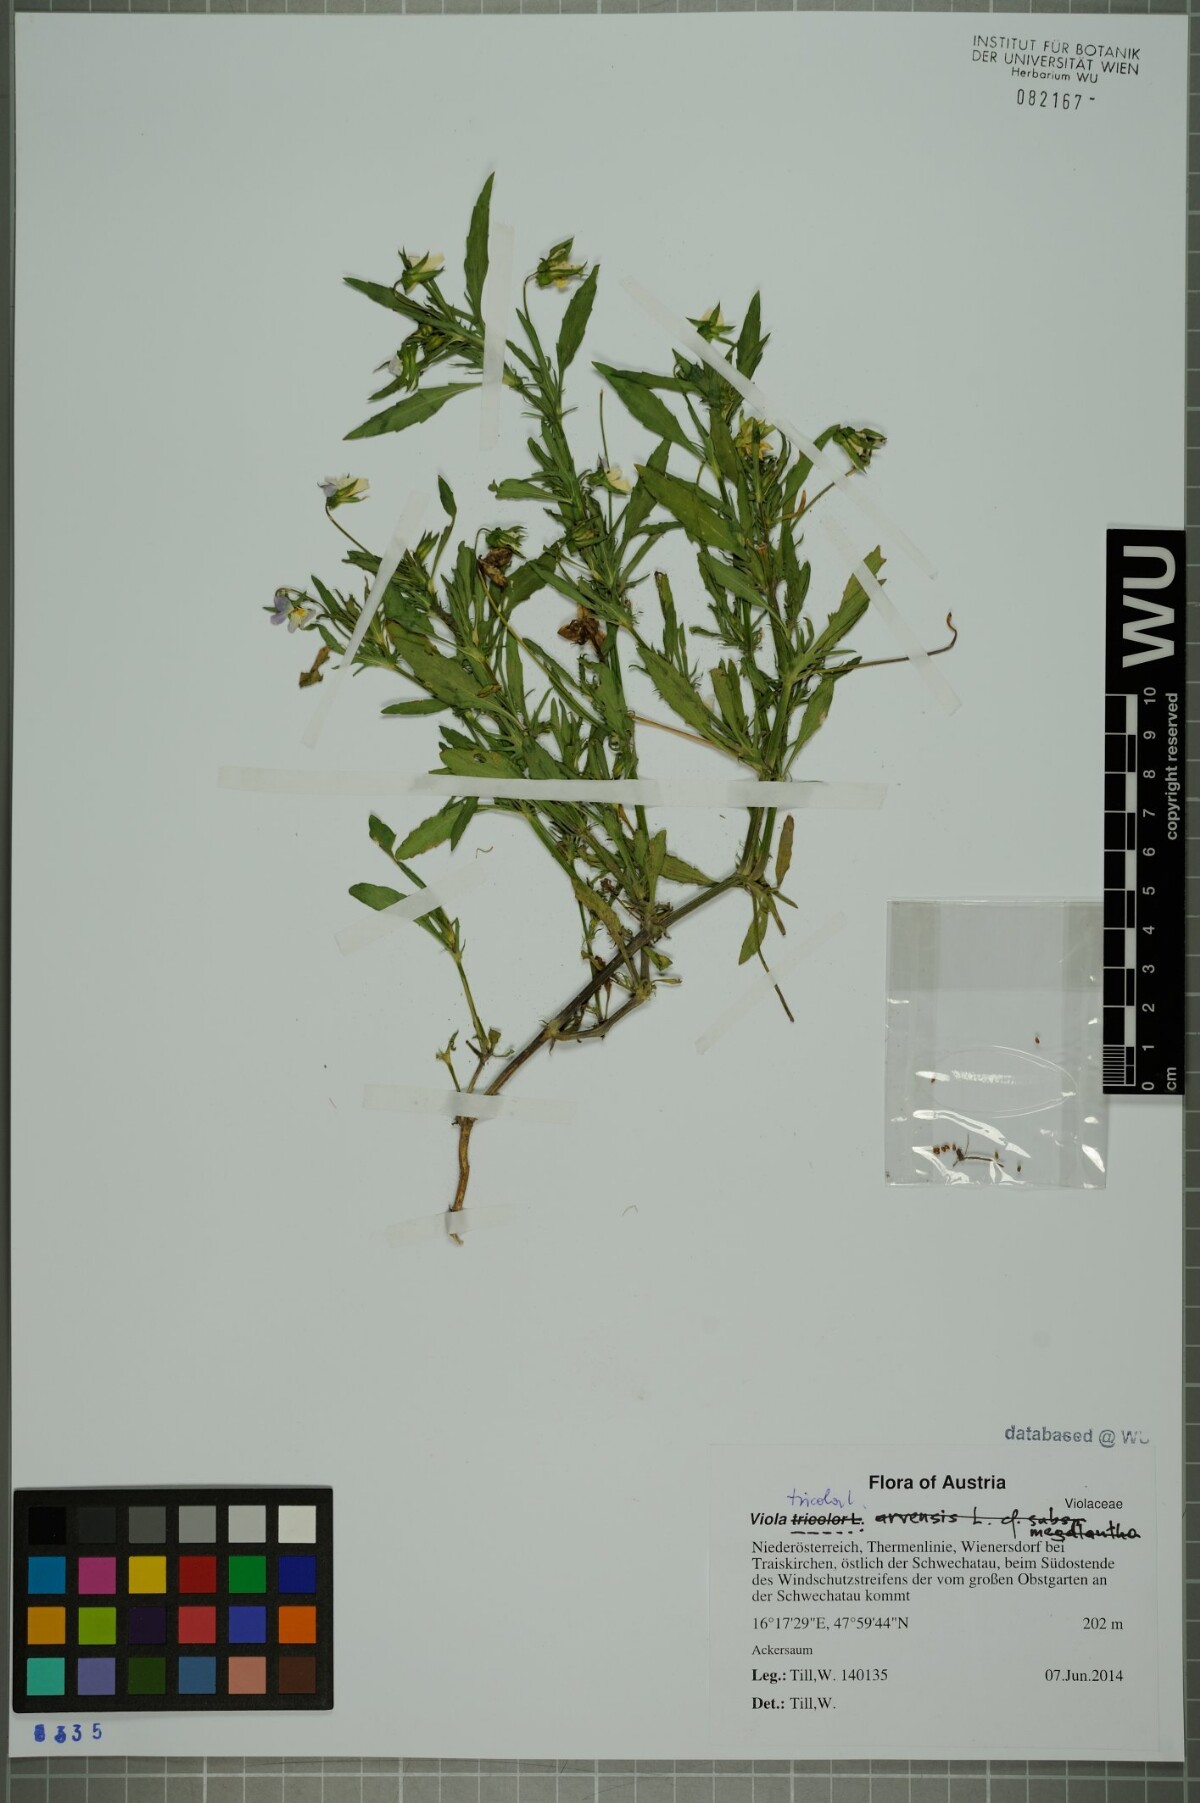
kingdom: Plantae
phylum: Tracheophyta
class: Magnoliopsida
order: Malpighiales
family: Violaceae
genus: Viola
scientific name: Viola tricolor
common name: Pansy
